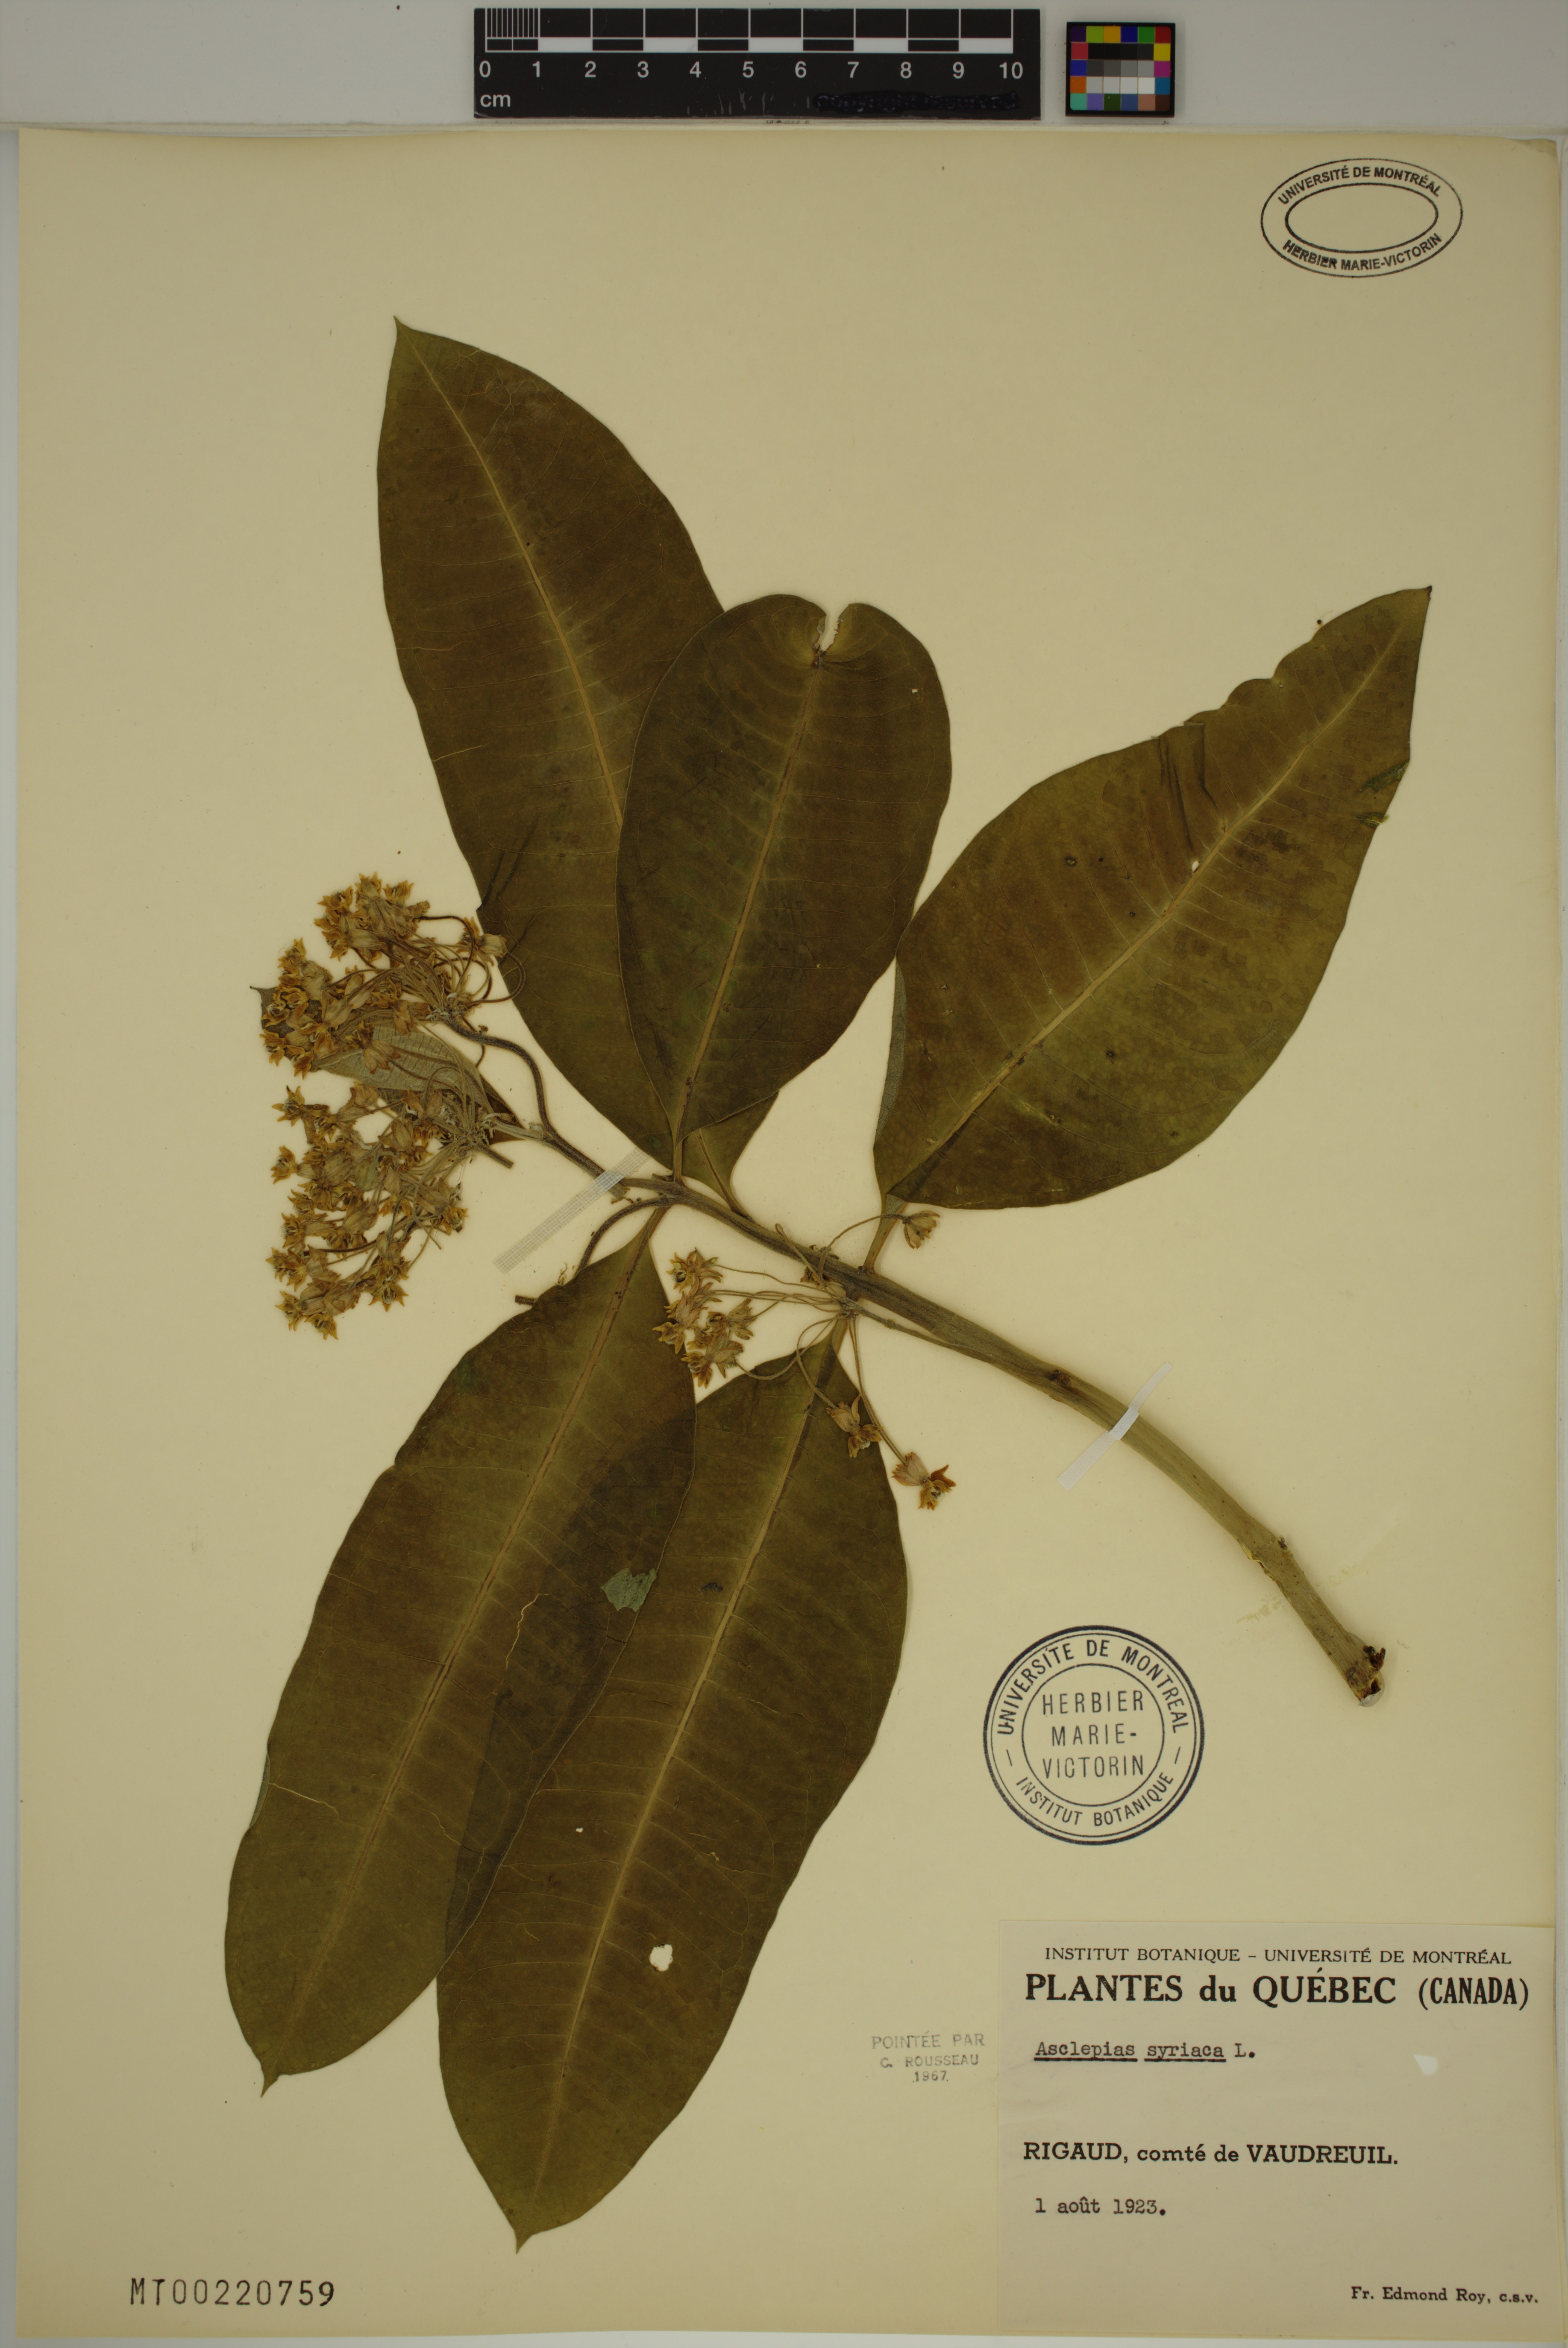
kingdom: Plantae
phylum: Tracheophyta
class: Magnoliopsida
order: Gentianales
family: Apocynaceae
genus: Asclepias
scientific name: Asclepias syriaca
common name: Common milkweed
